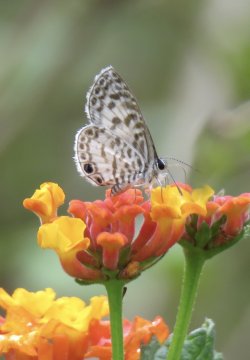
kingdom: Animalia
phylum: Arthropoda
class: Insecta
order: Lepidoptera
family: Lycaenidae
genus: Leptotes
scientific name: Leptotes cassius
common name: Cassius Blue
